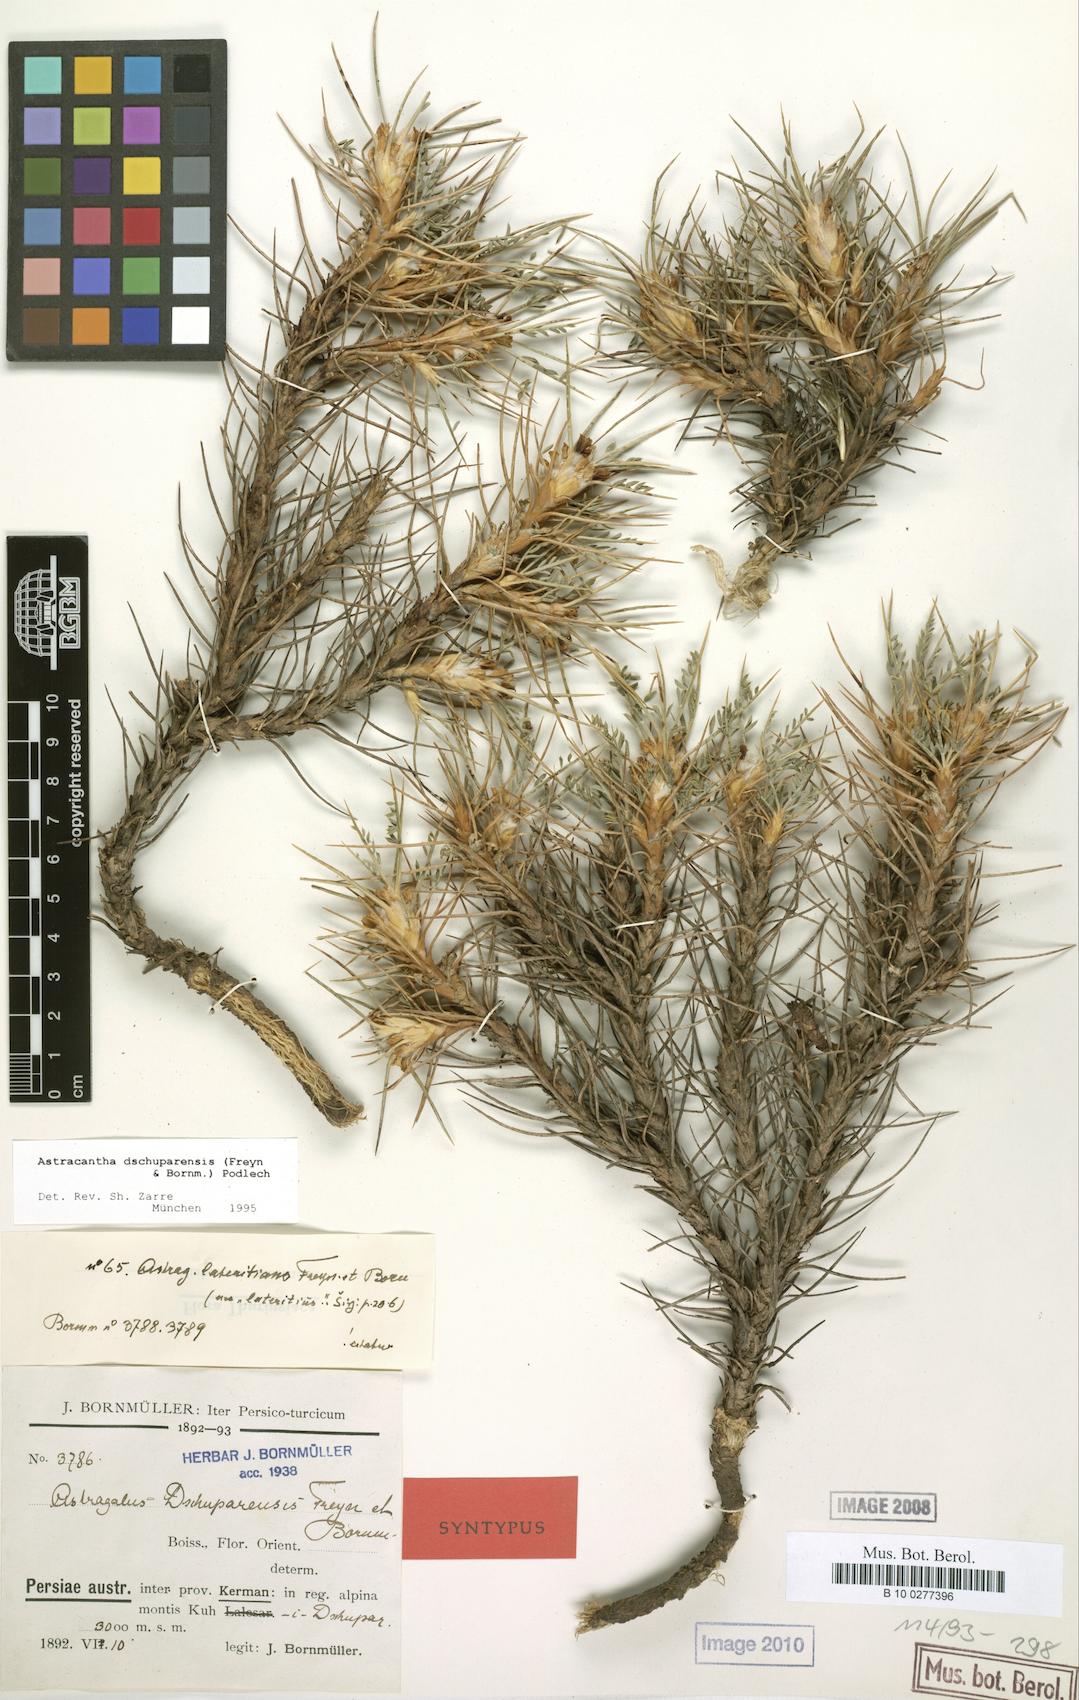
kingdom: Plantae
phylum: Tracheophyta
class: Magnoliopsida
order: Fabales
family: Fabaceae
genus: Astragalus
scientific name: Astragalus dschuparensis
